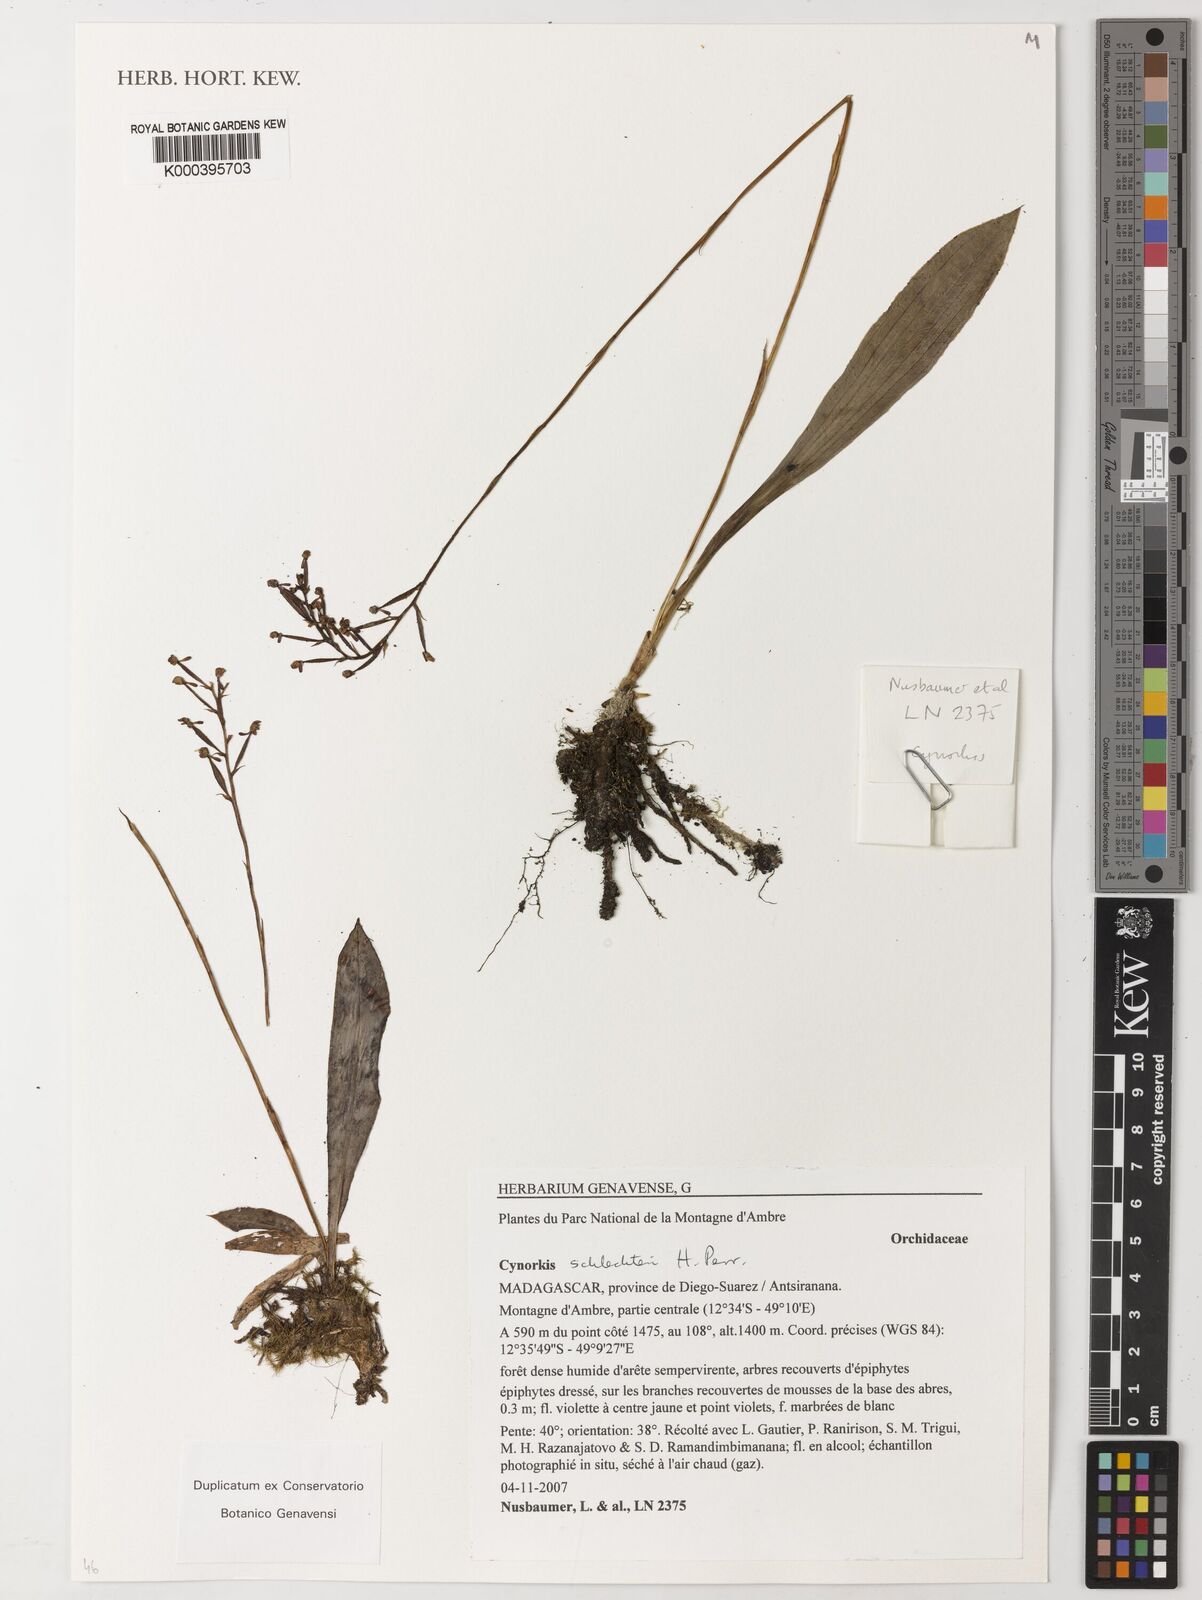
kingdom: Plantae
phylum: Tracheophyta
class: Liliopsida
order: Asparagales
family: Orchidaceae
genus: Cynorkis
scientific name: Cynorkis schlechteri
